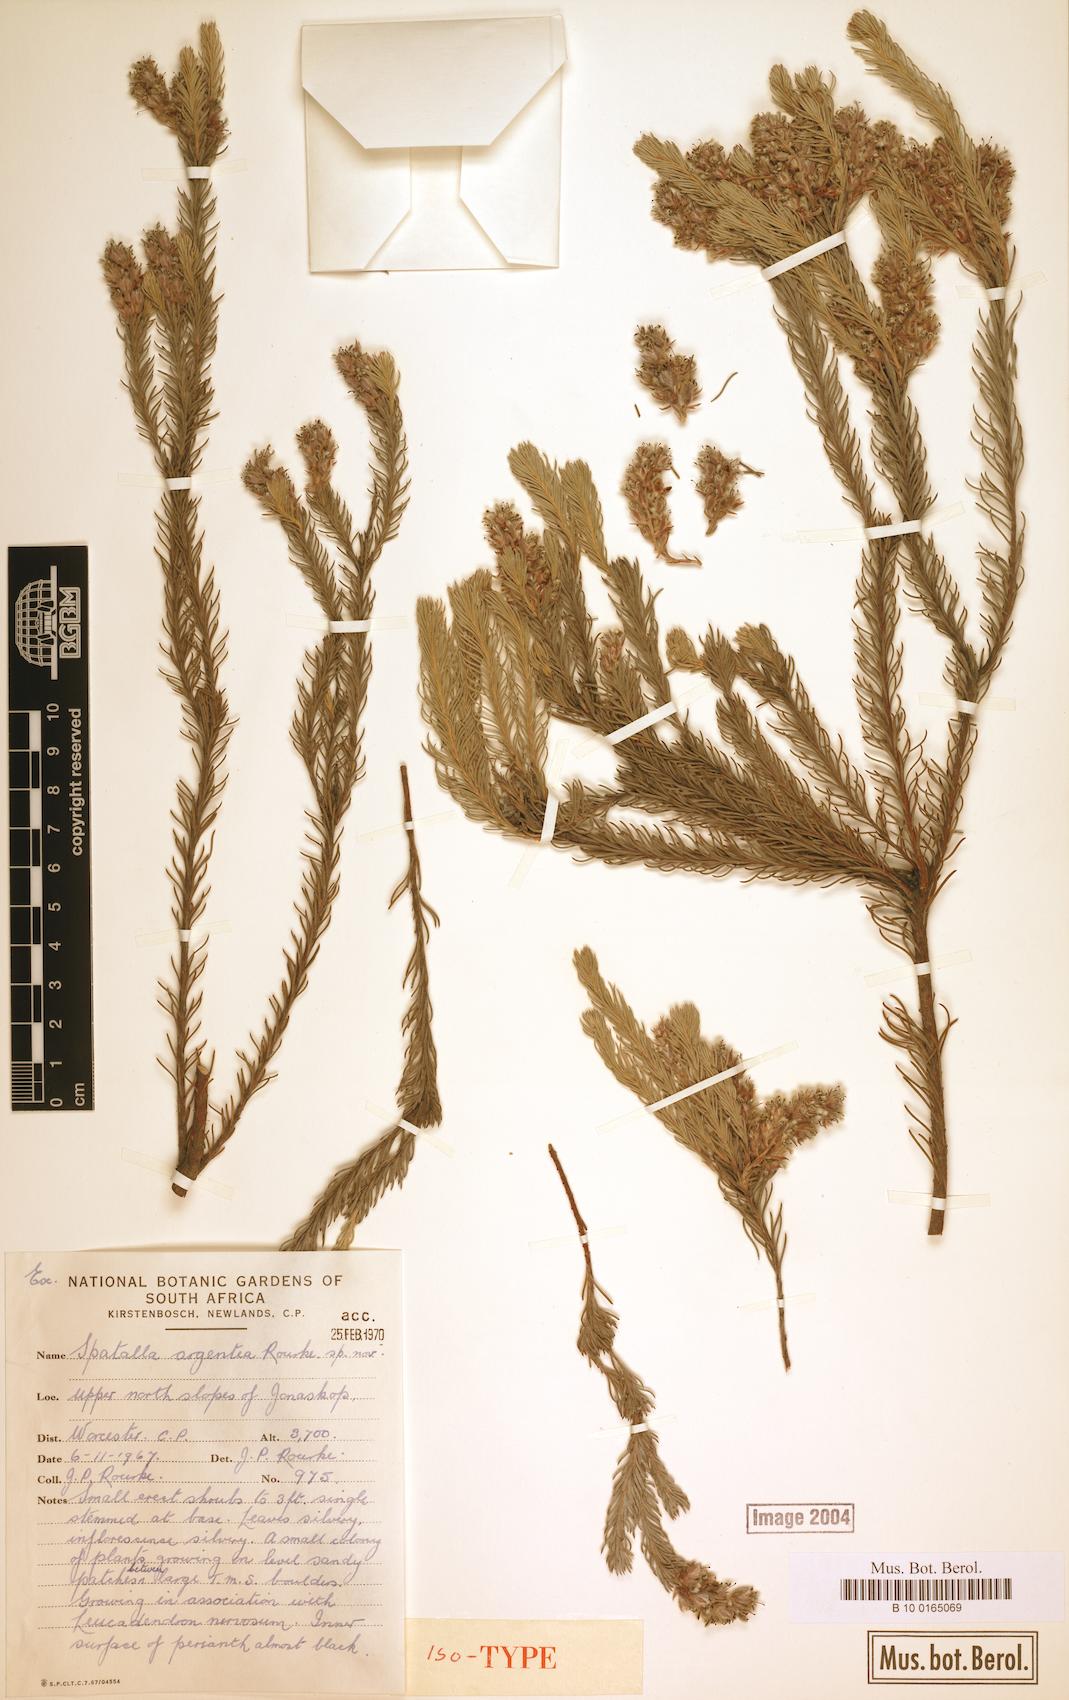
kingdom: Plantae
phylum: Tracheophyta
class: Magnoliopsida
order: Proteales
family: Proteaceae
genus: Spatalla
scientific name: Spatalla argentea
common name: Silver-leaf spoon
